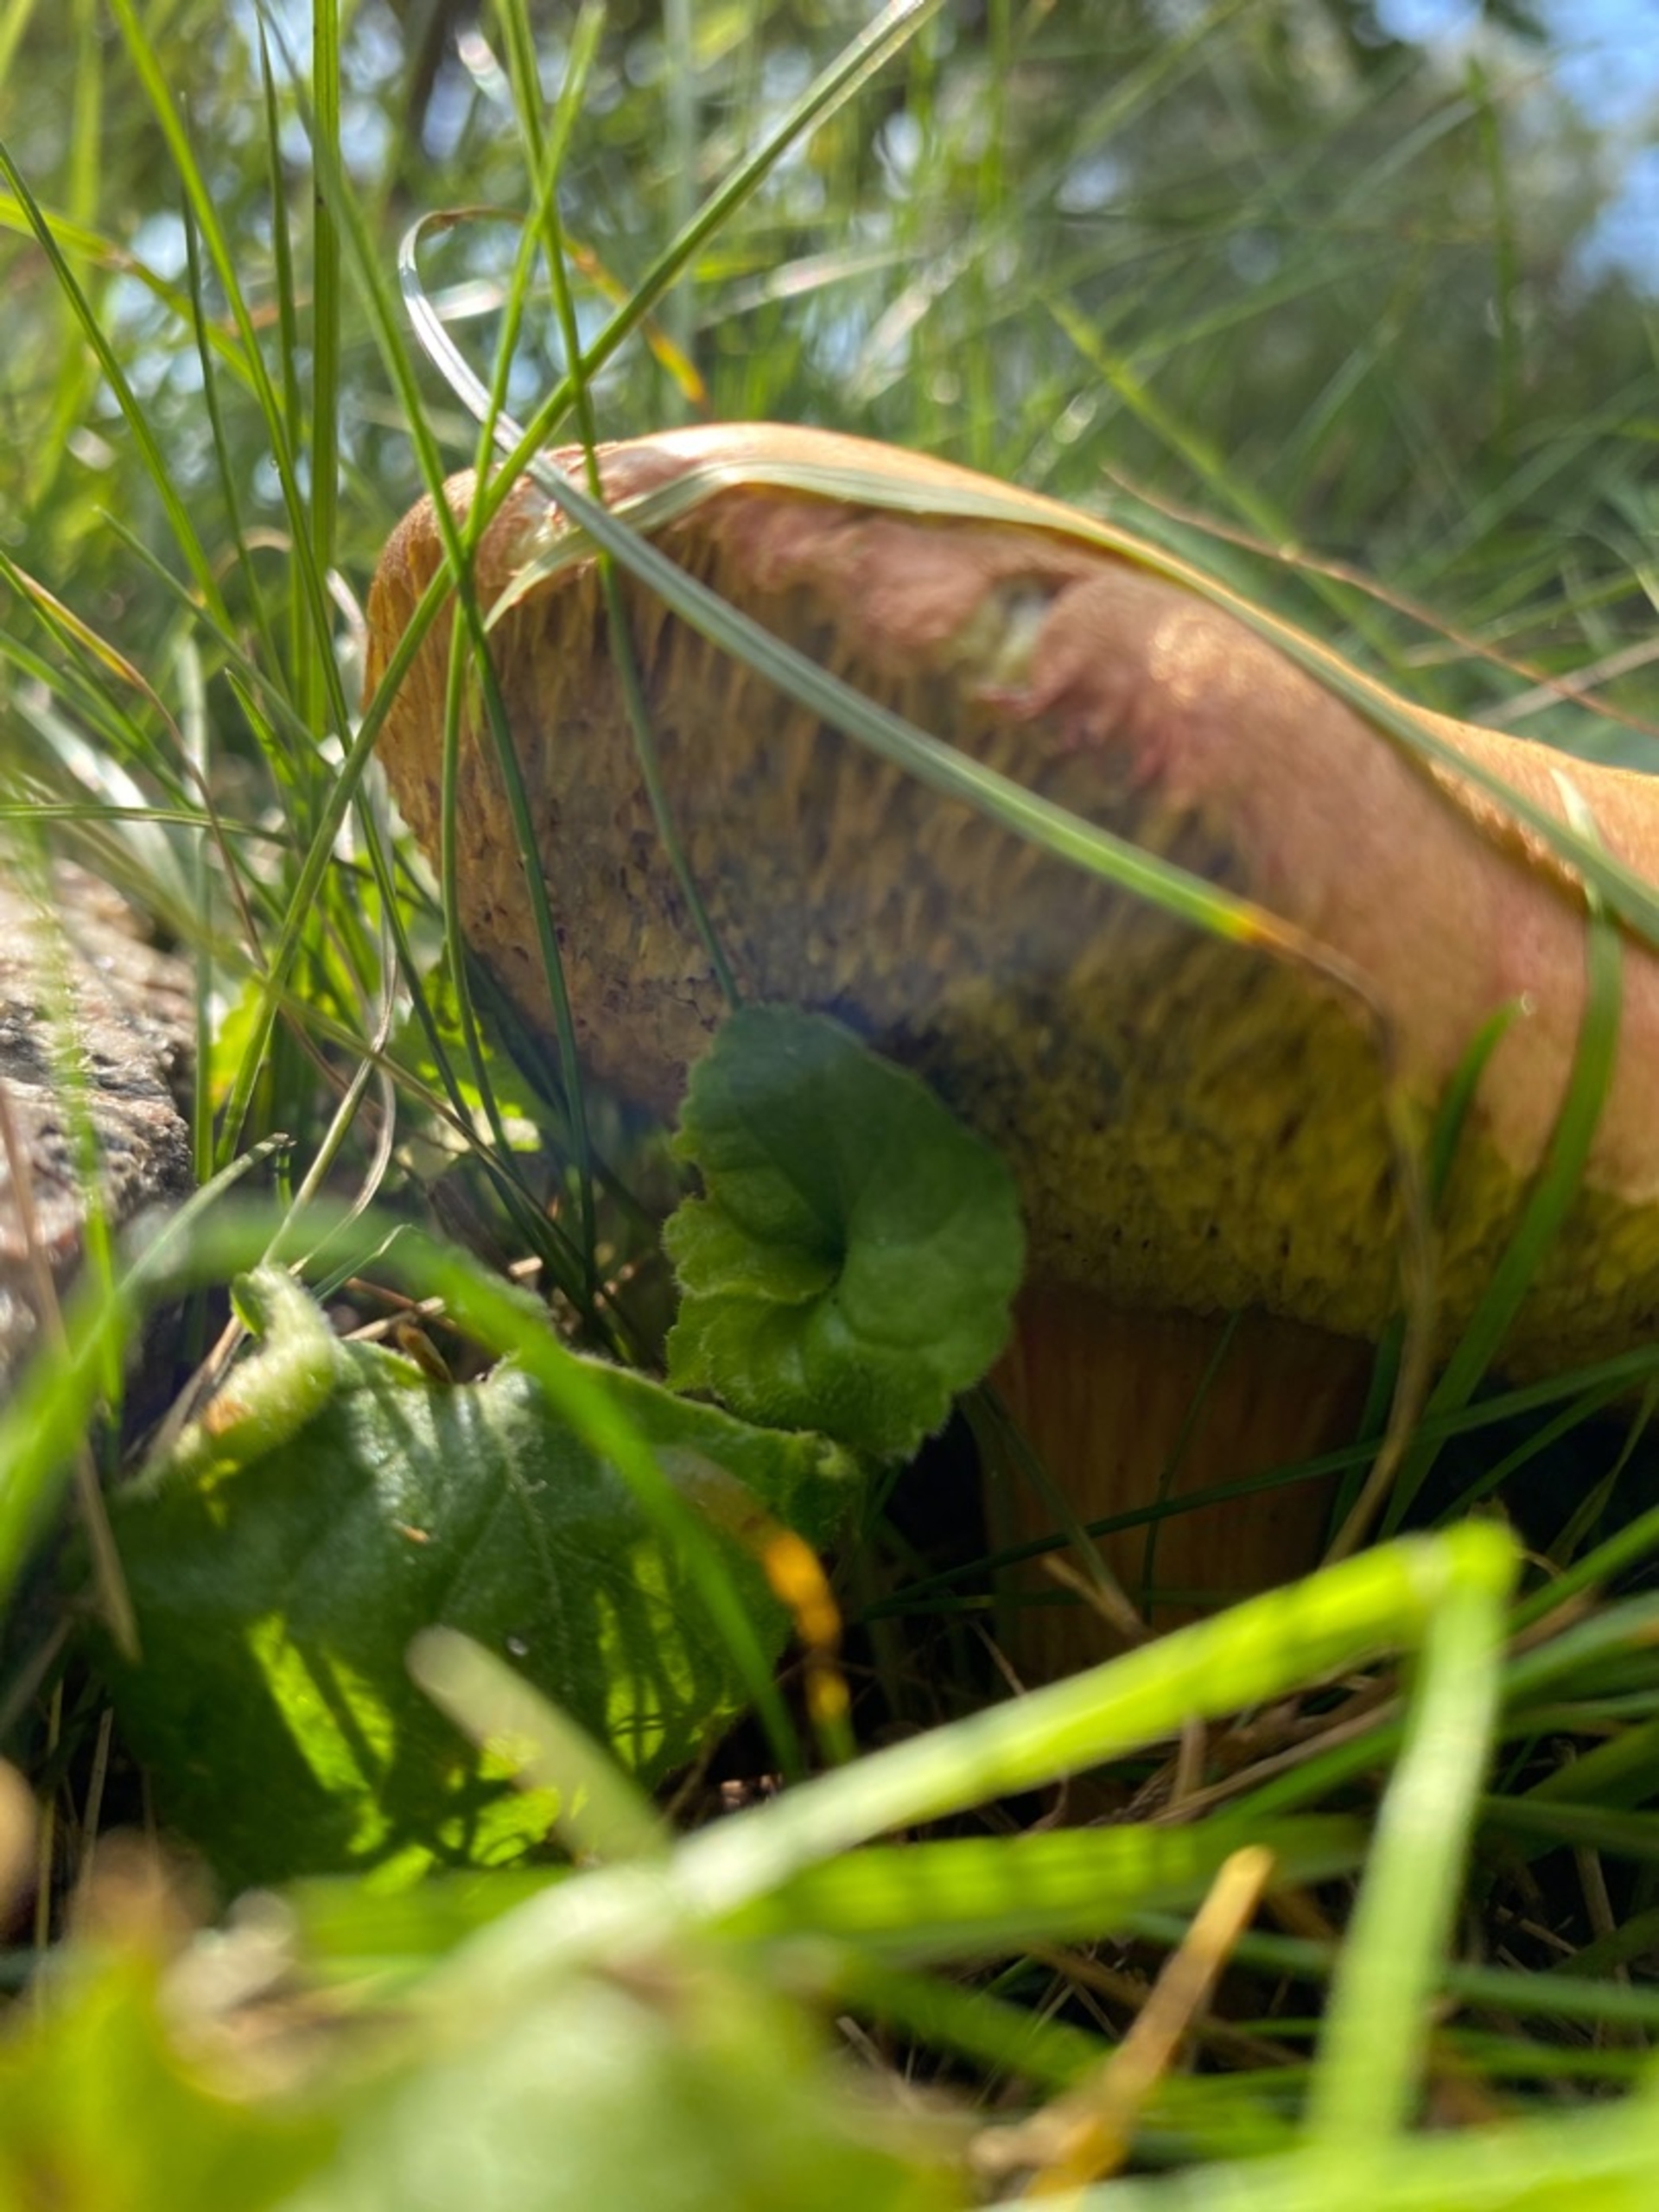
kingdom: Fungi
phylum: Basidiomycota
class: Agaricomycetes
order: Boletales
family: Boletaceae
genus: Hortiboletus
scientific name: Hortiboletus
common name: Dværgrørhat
